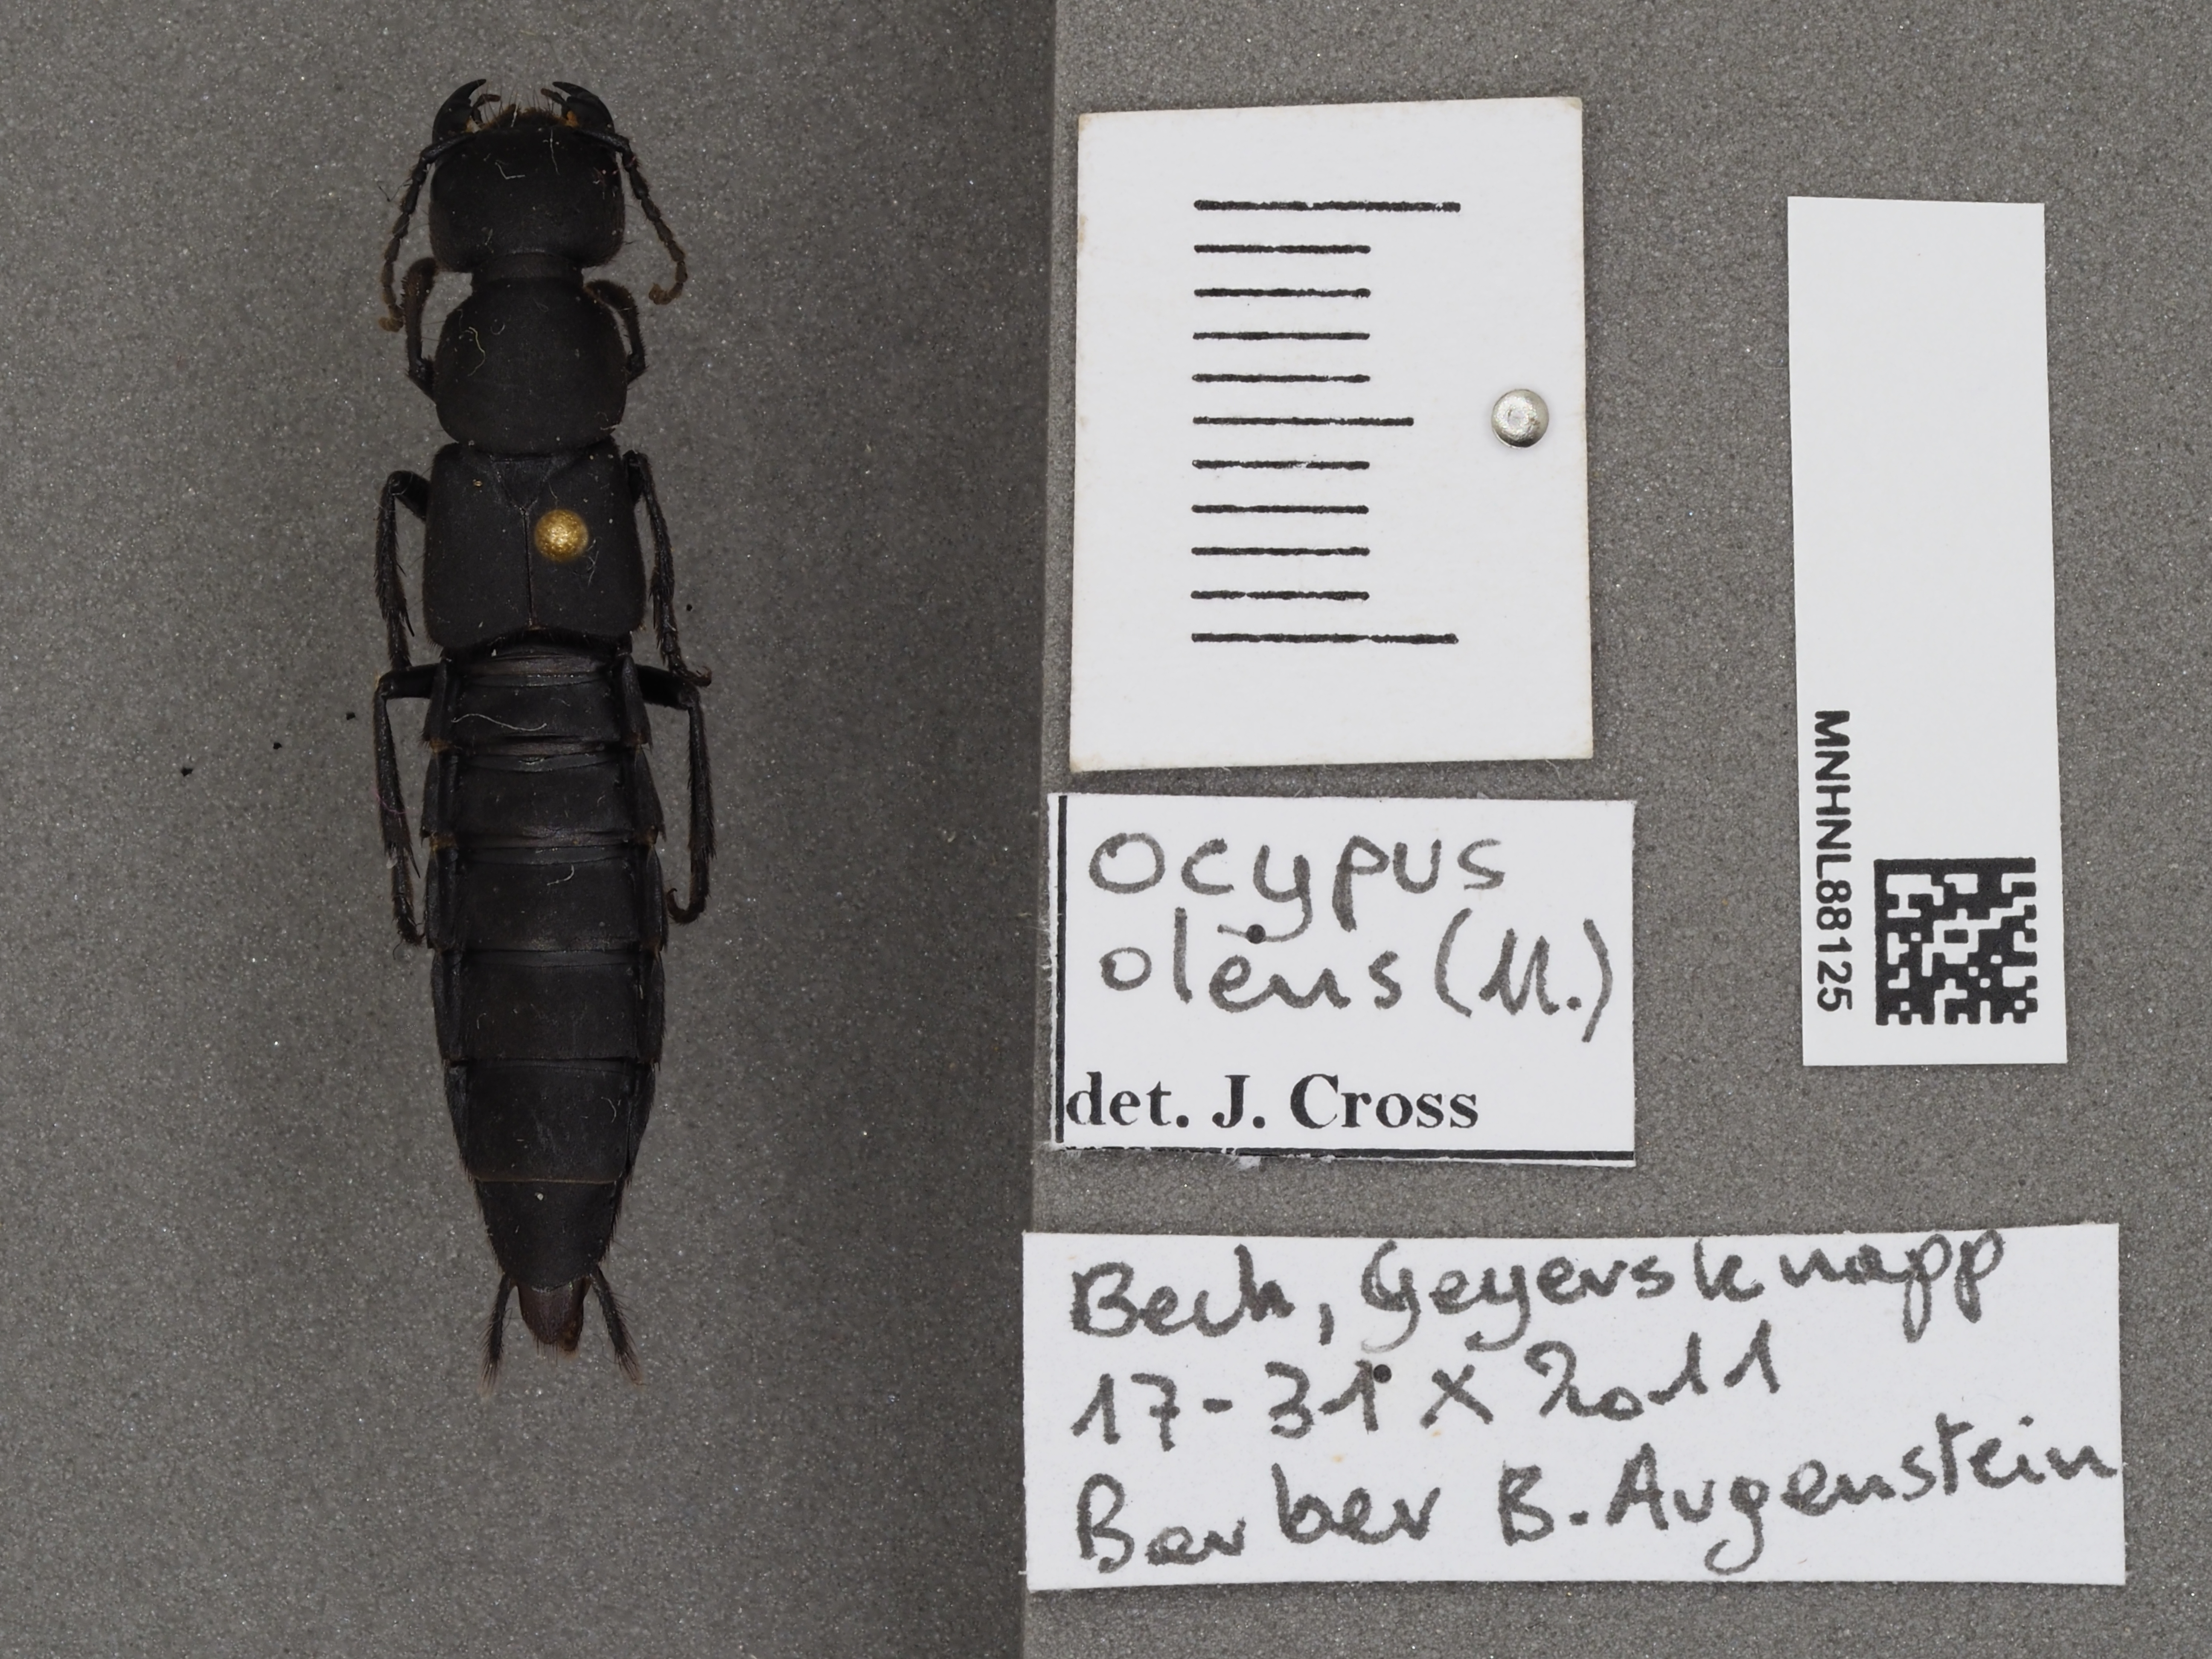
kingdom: Animalia
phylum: Arthropoda
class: Insecta
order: Coleoptera
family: Staphylinidae
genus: Ocypus
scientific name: Ocypus olens
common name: Devil's coach-horse
